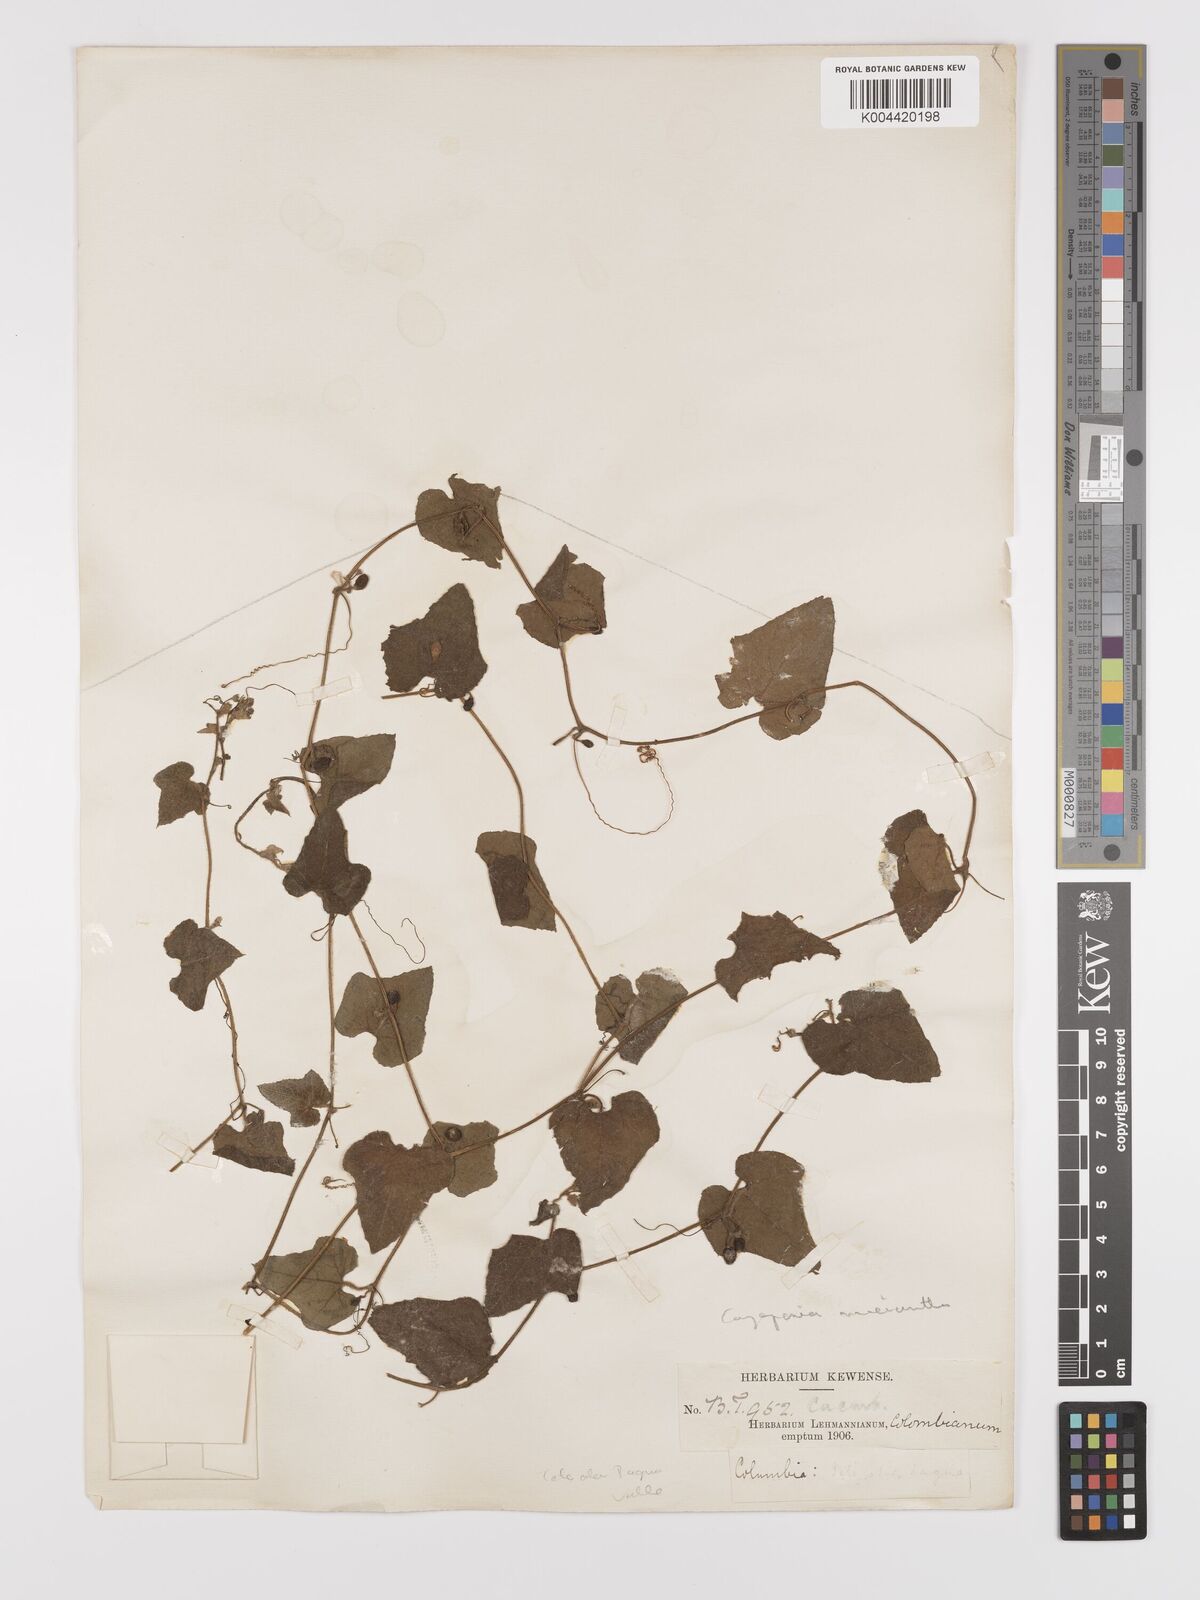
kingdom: Plantae
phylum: Tracheophyta
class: Magnoliopsida
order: Cucurbitales
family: Cucurbitaceae
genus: Cayaponia
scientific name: Cayaponia triangularis
